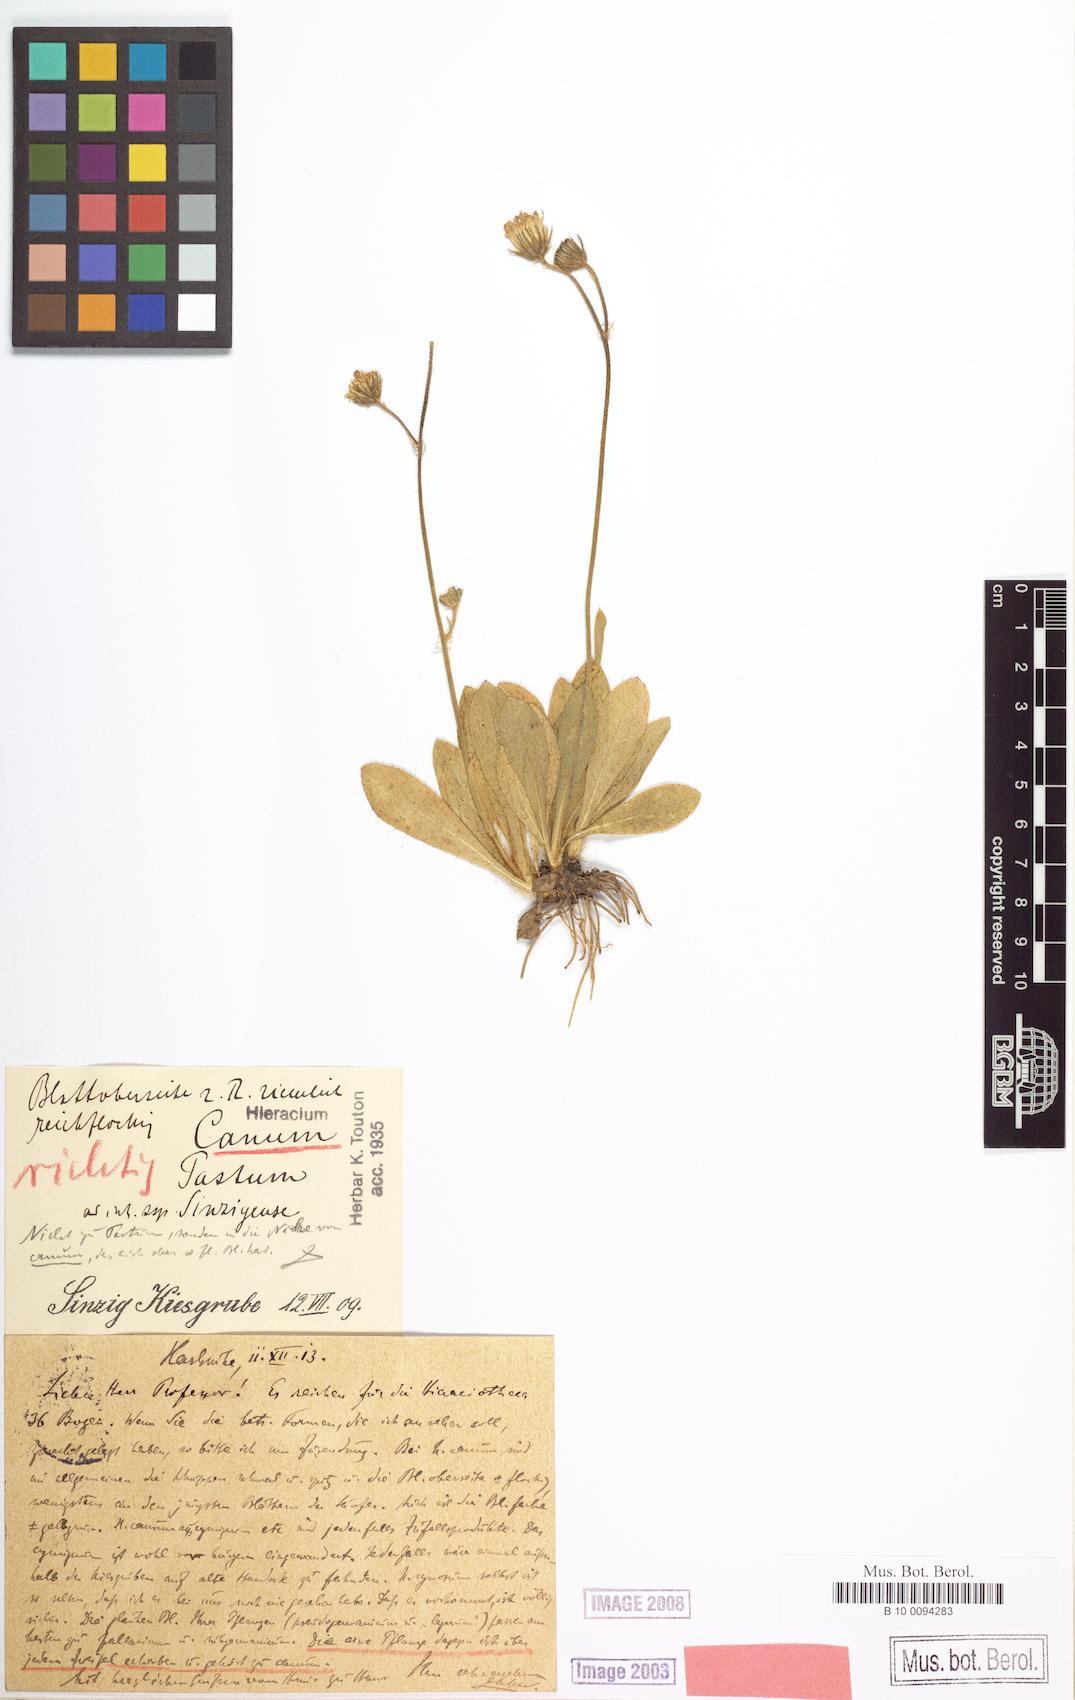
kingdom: Plantae
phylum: Tracheophyta
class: Magnoliopsida
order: Asterales
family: Asteraceae
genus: Pilosella
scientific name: Pilosella cana
